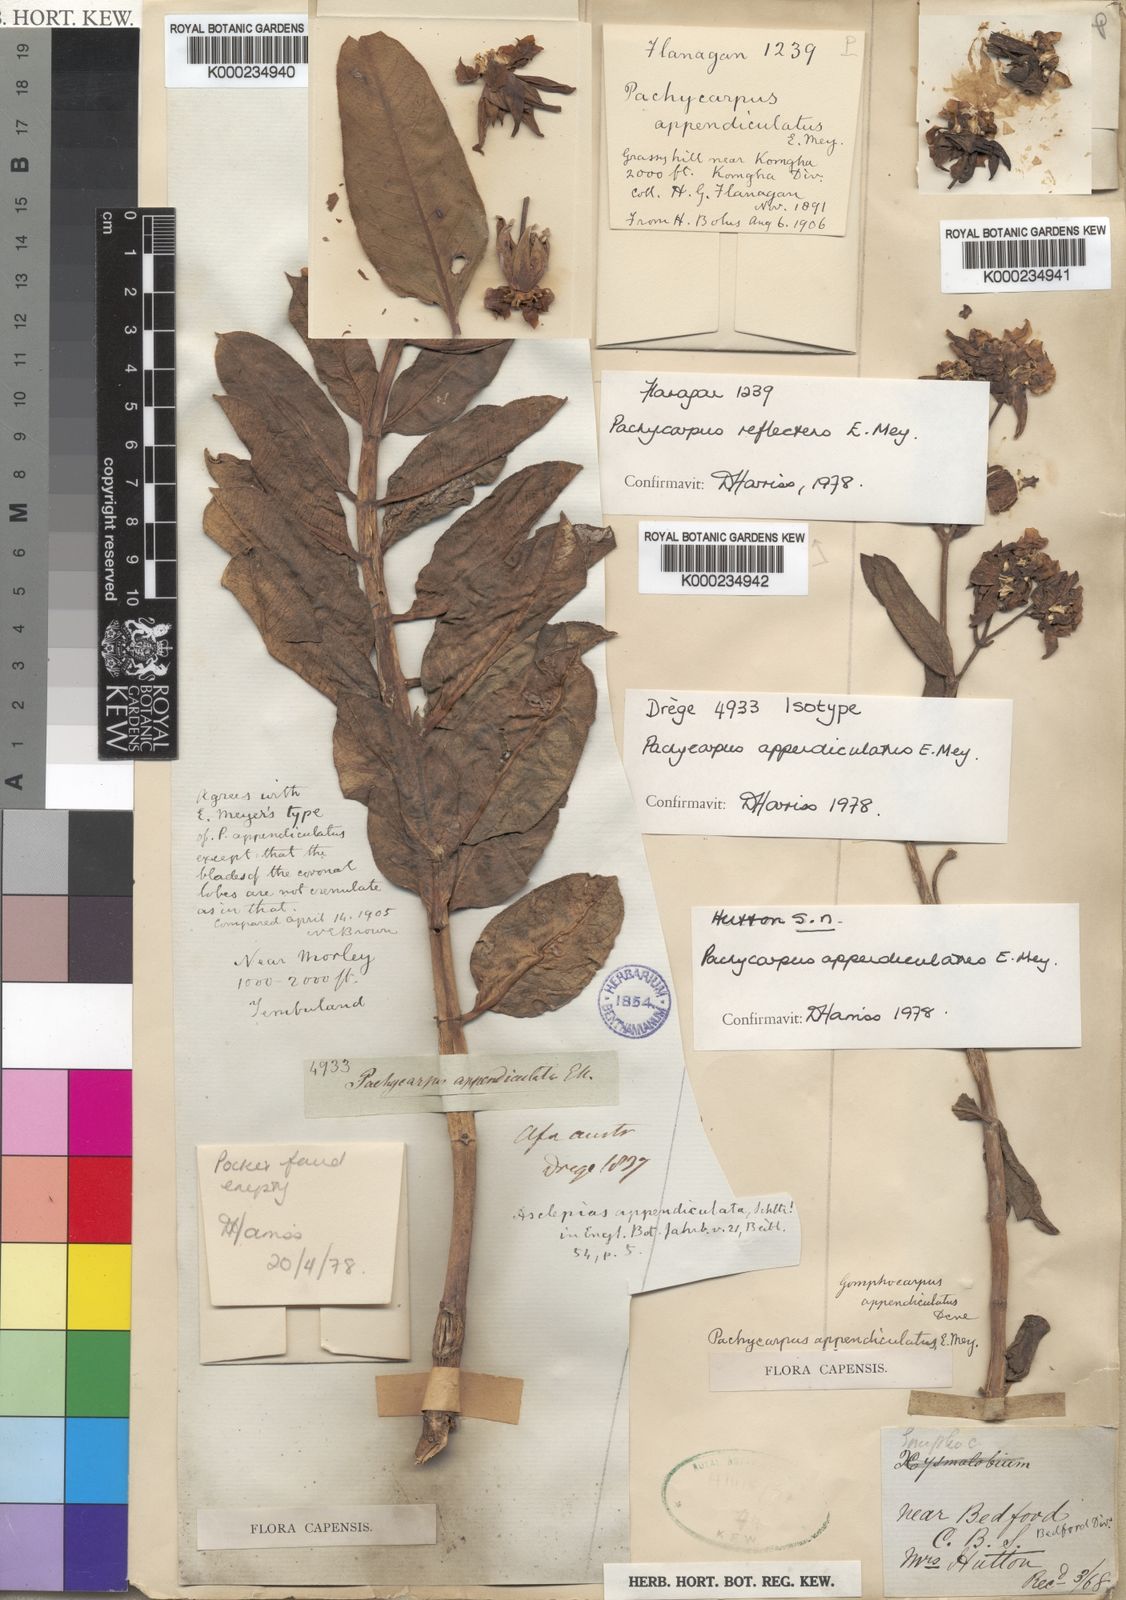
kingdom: Plantae
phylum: Tracheophyta
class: Magnoliopsida
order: Gentianales
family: Apocynaceae
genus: Pachycarpus
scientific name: Pachycarpus appendiculatus
